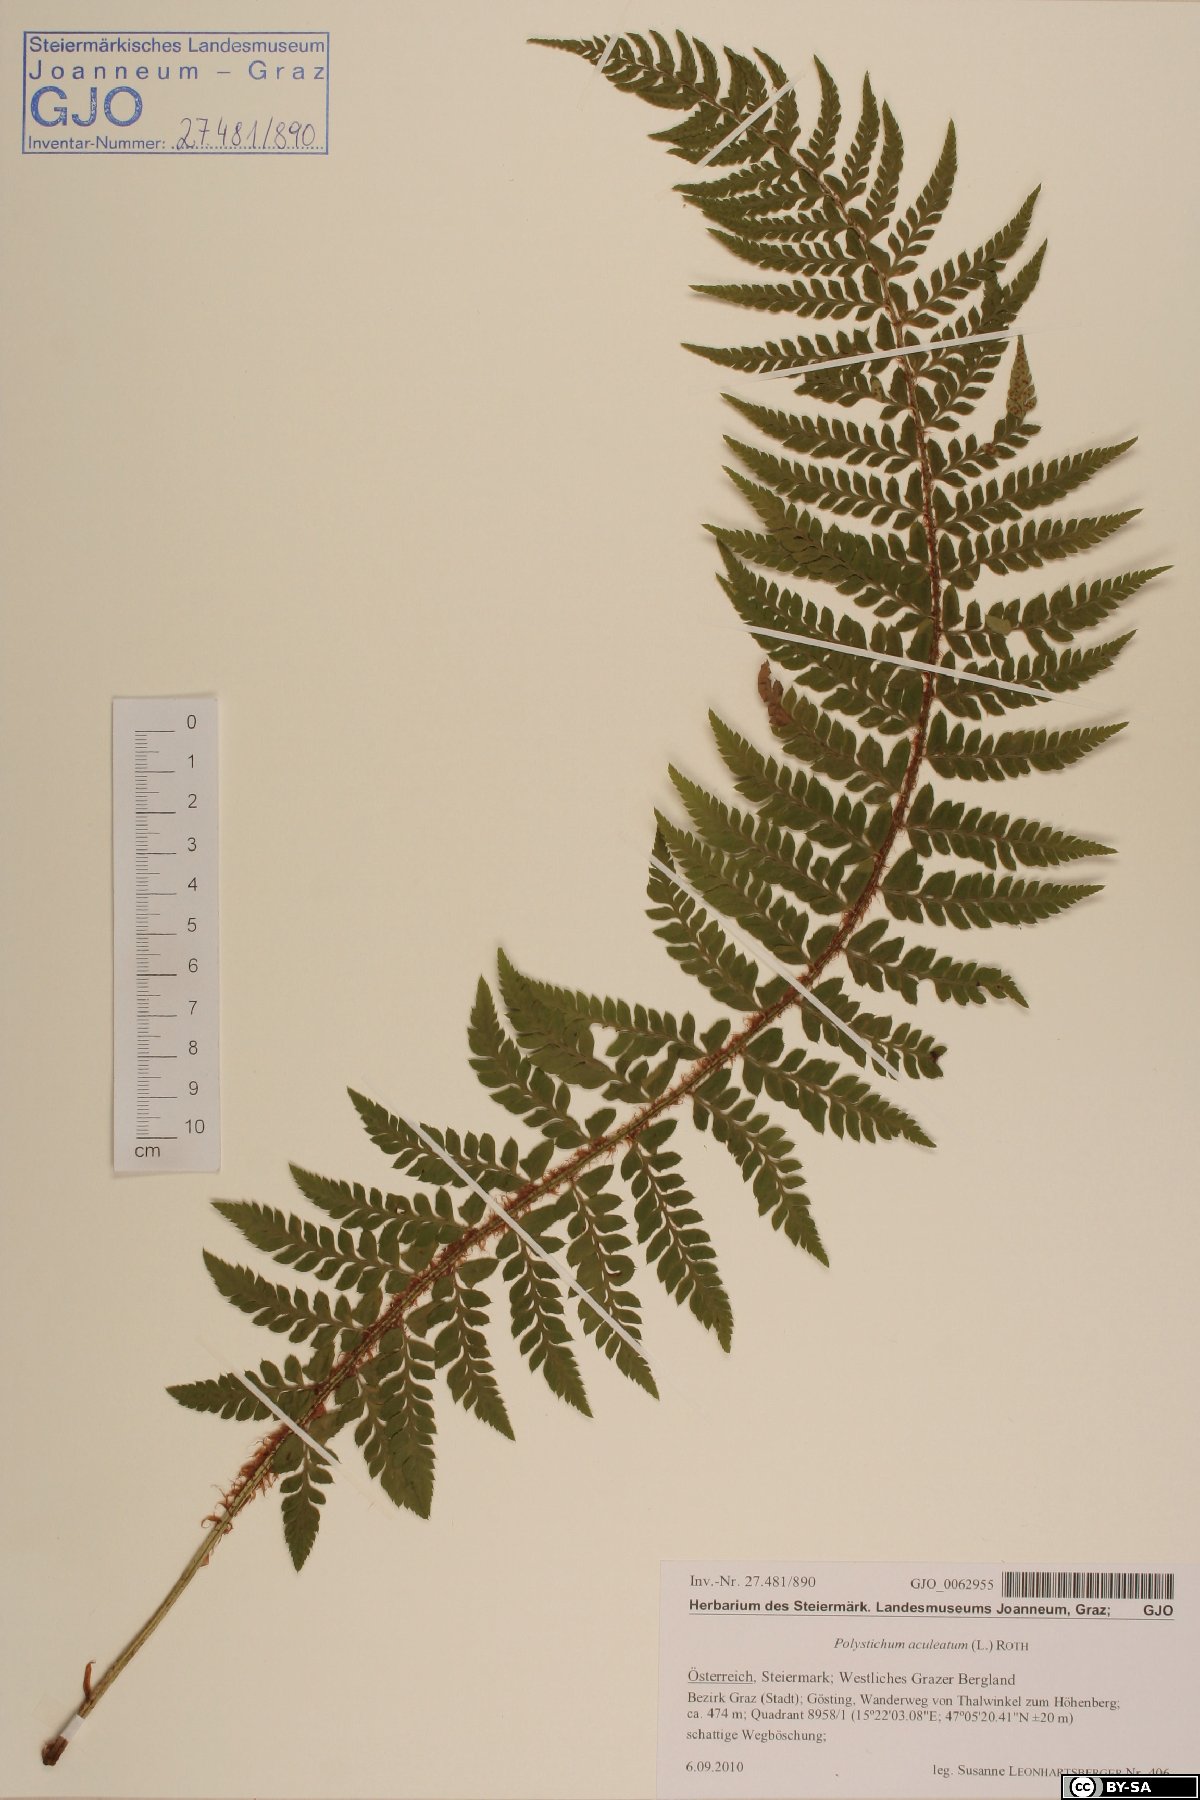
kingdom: Plantae
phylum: Tracheophyta
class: Polypodiopsida
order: Polypodiales
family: Dryopteridaceae
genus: Polystichum
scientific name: Polystichum aculeatum
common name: Hard shield-fern
